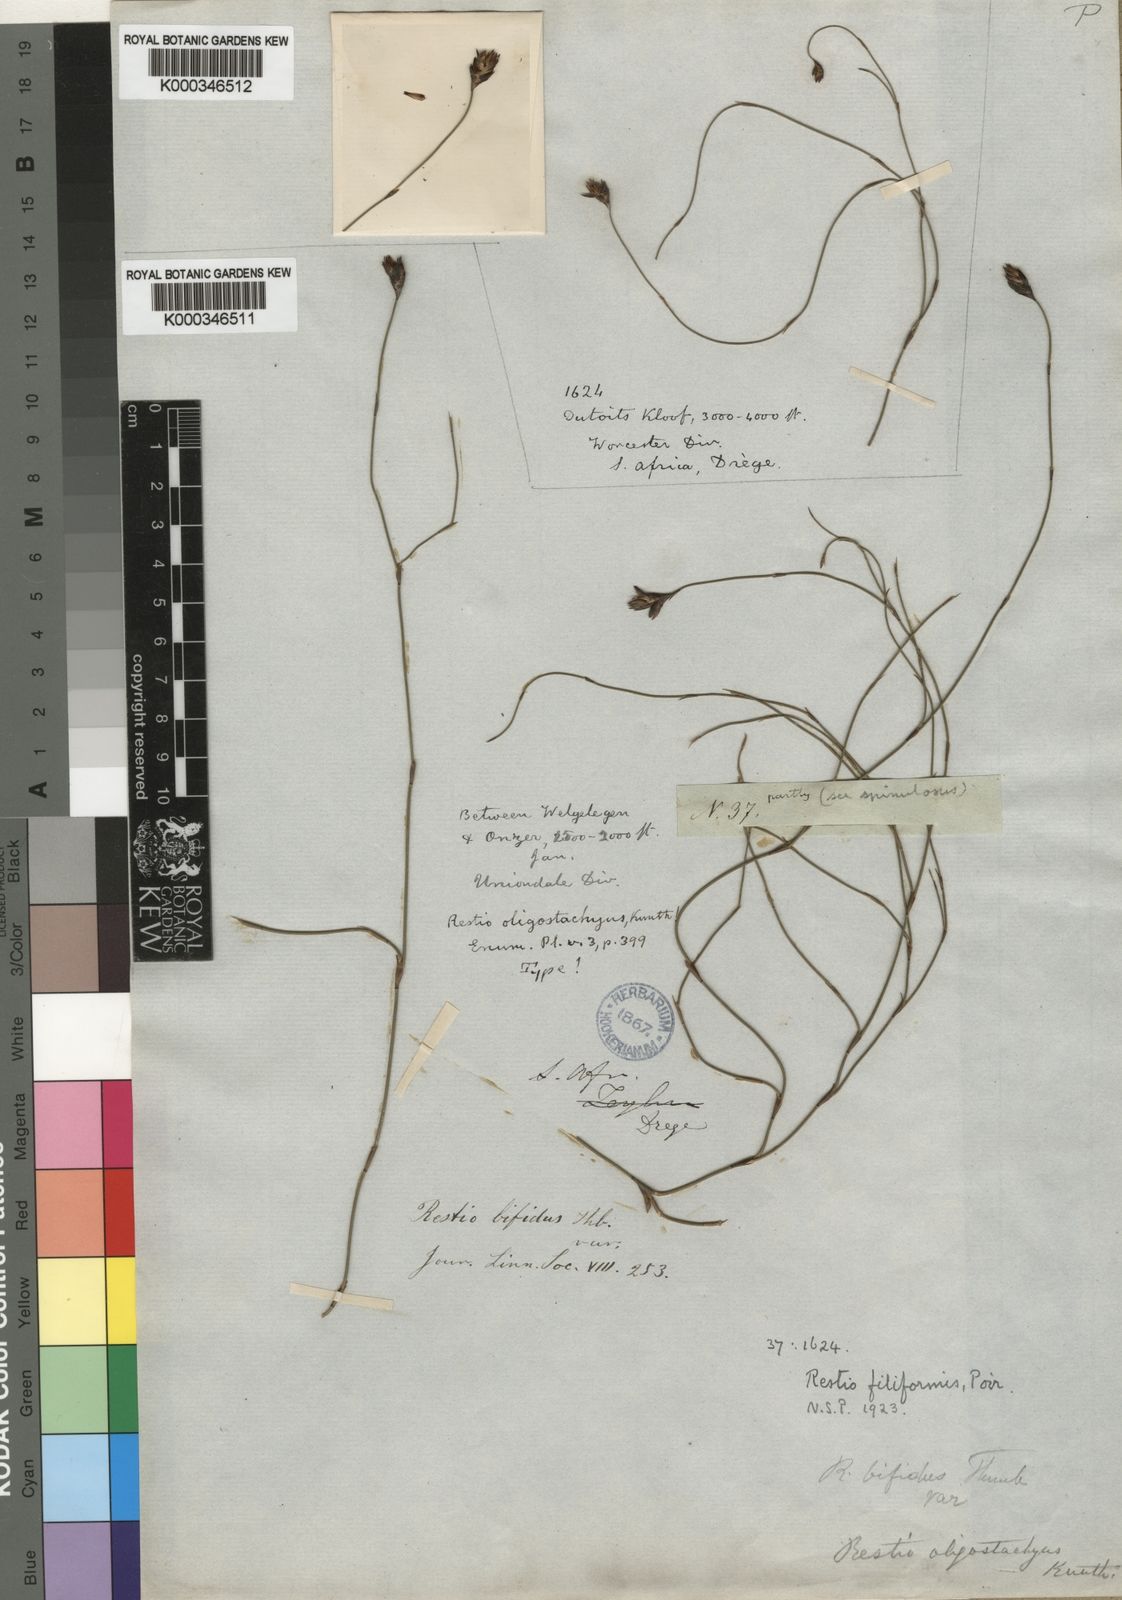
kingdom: Plantae
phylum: Tracheophyta
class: Liliopsida
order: Poales
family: Restionaceae
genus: Restio
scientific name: Restio filiformis
